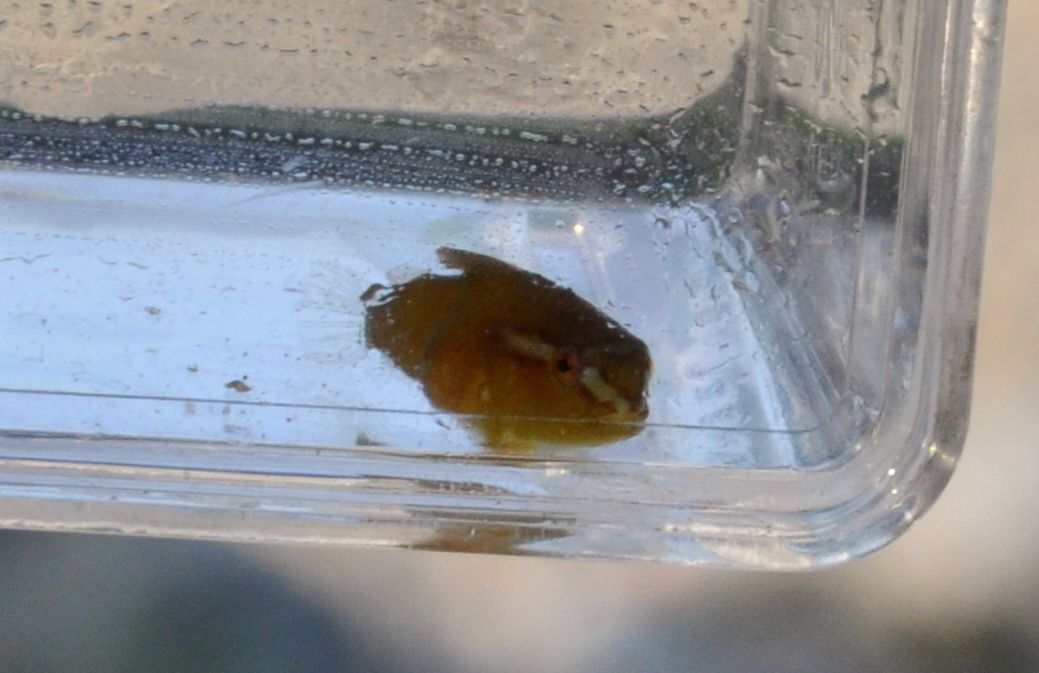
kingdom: Animalia
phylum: Chordata
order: Scorpaeniformes
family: Cyclopteridae
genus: Cyclopterus
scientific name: Cyclopterus lumpus
